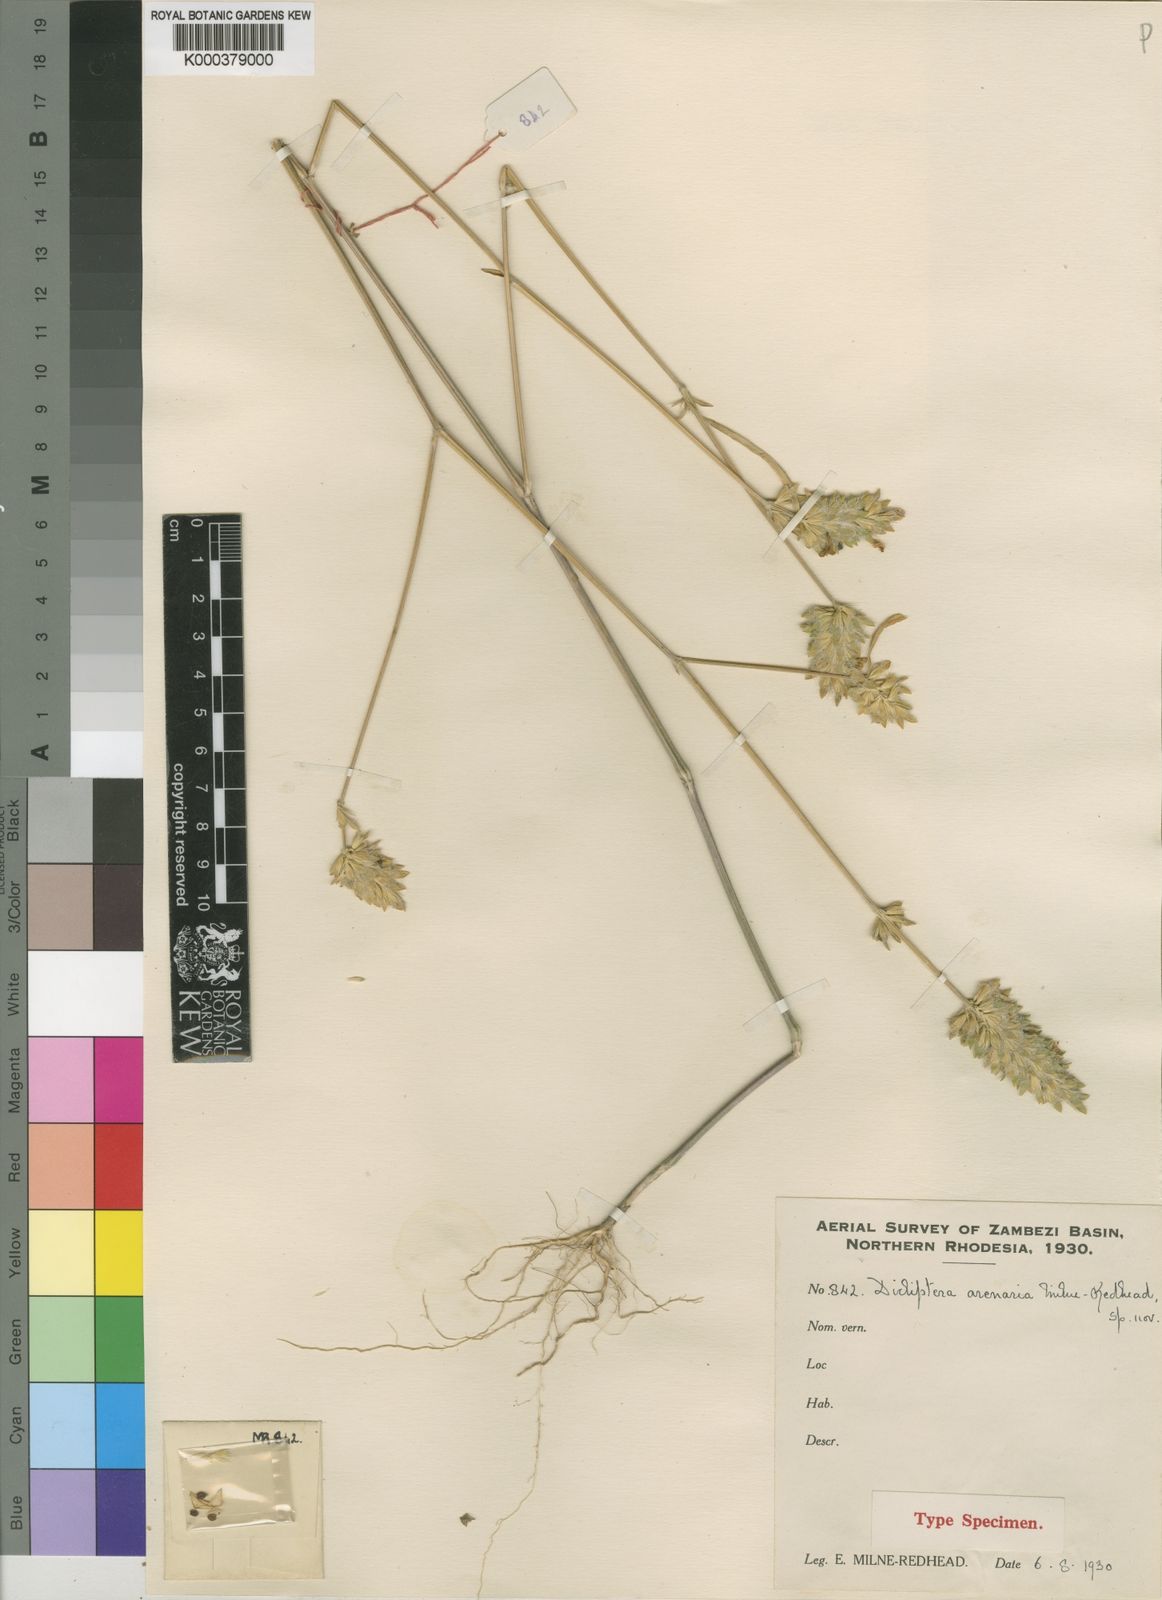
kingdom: Plantae
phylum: Tracheophyta
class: Magnoliopsida
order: Lamiales
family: Acanthaceae
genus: Dicliptera
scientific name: Dicliptera betonicoides
